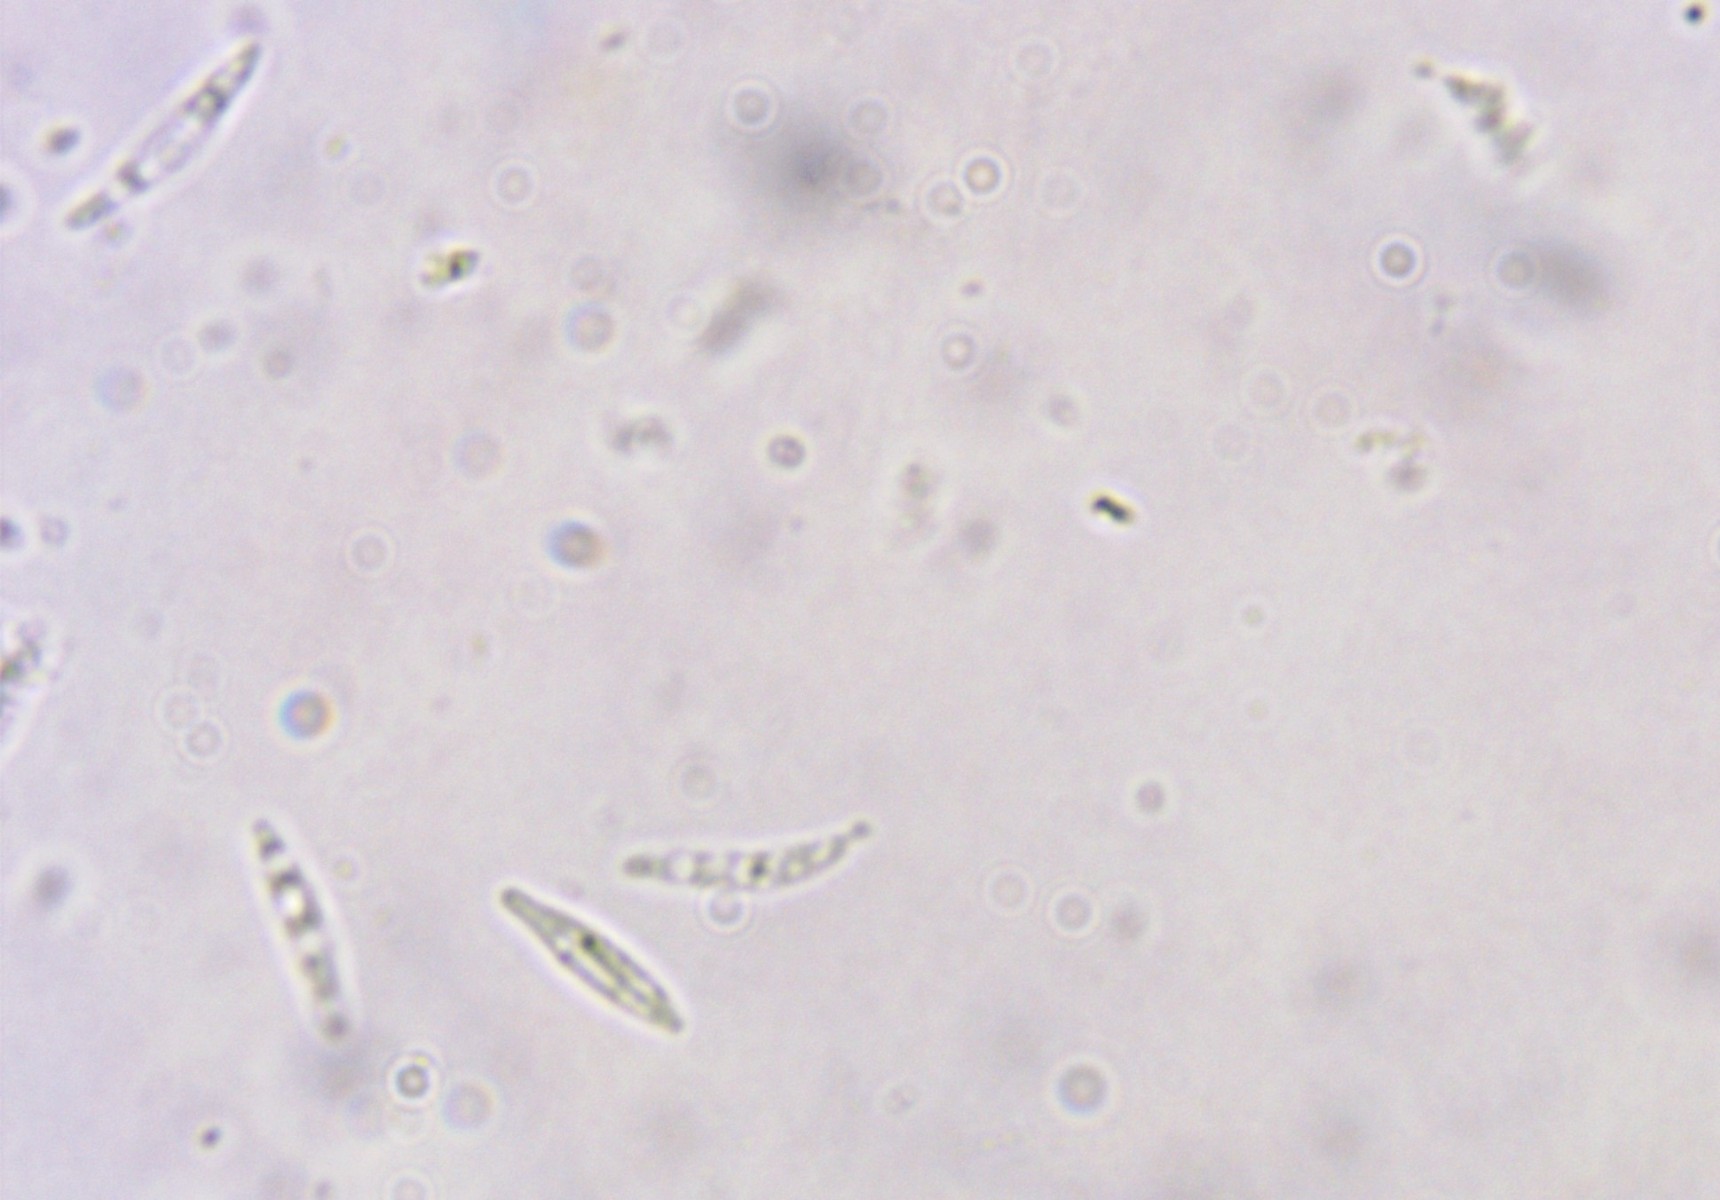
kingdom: Fungi
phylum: Ascomycota
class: Orbiliomycetes
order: Orbiliales
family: Orbiliaceae
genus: Orbilia
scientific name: Orbilia obtusispora
